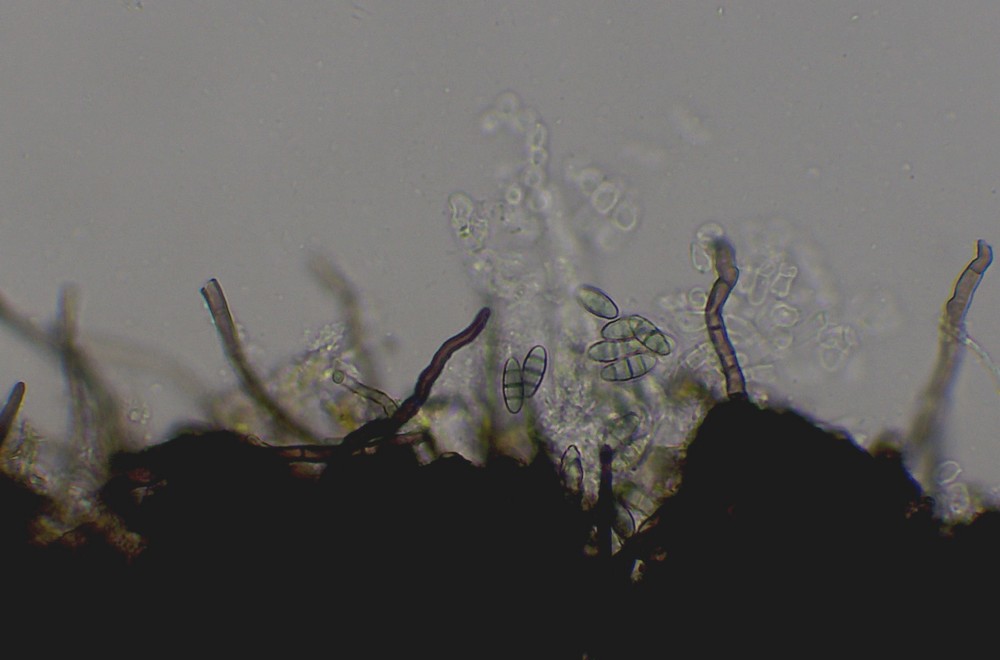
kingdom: Fungi
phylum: Ascomycota
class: Eurotiomycetes
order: Chaetothyriales
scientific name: Chaetothyriales
